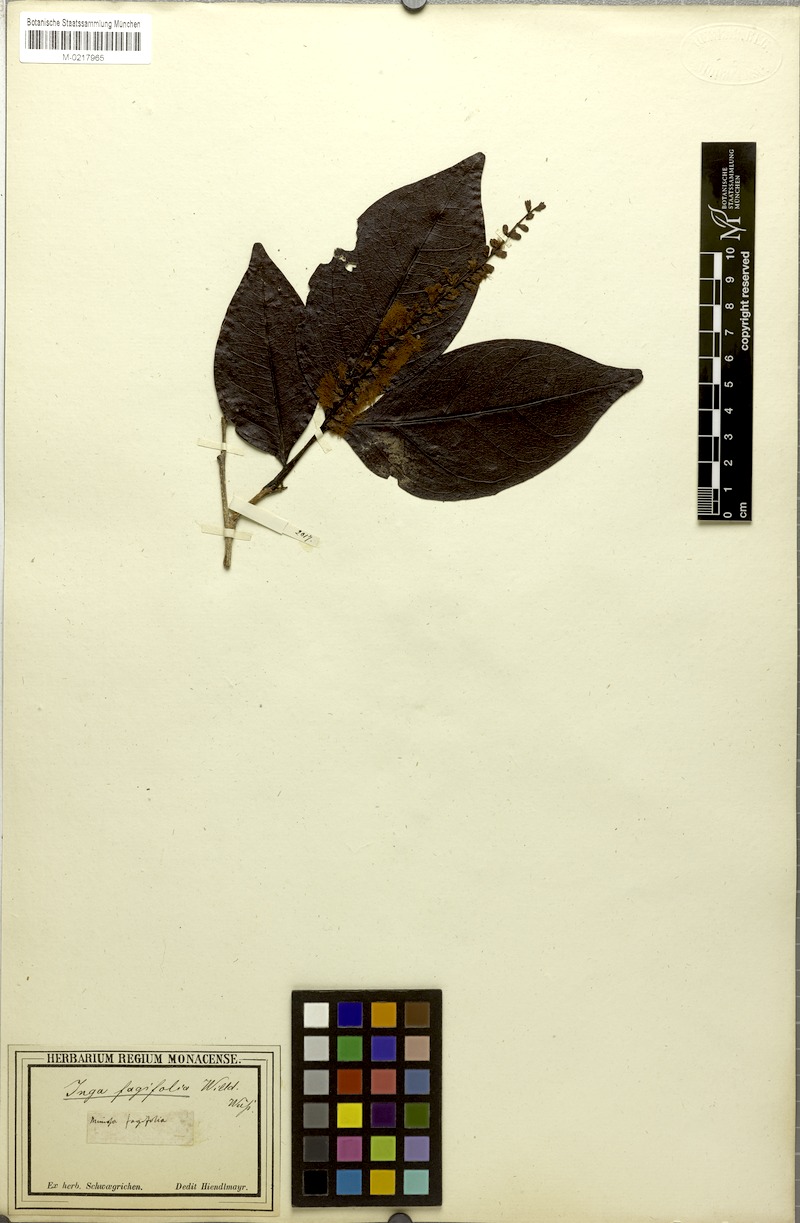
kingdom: Plantae
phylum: Tracheophyta
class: Magnoliopsida
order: Fabales
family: Fabaceae
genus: Inga
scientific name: Inga laurina
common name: Red wood
